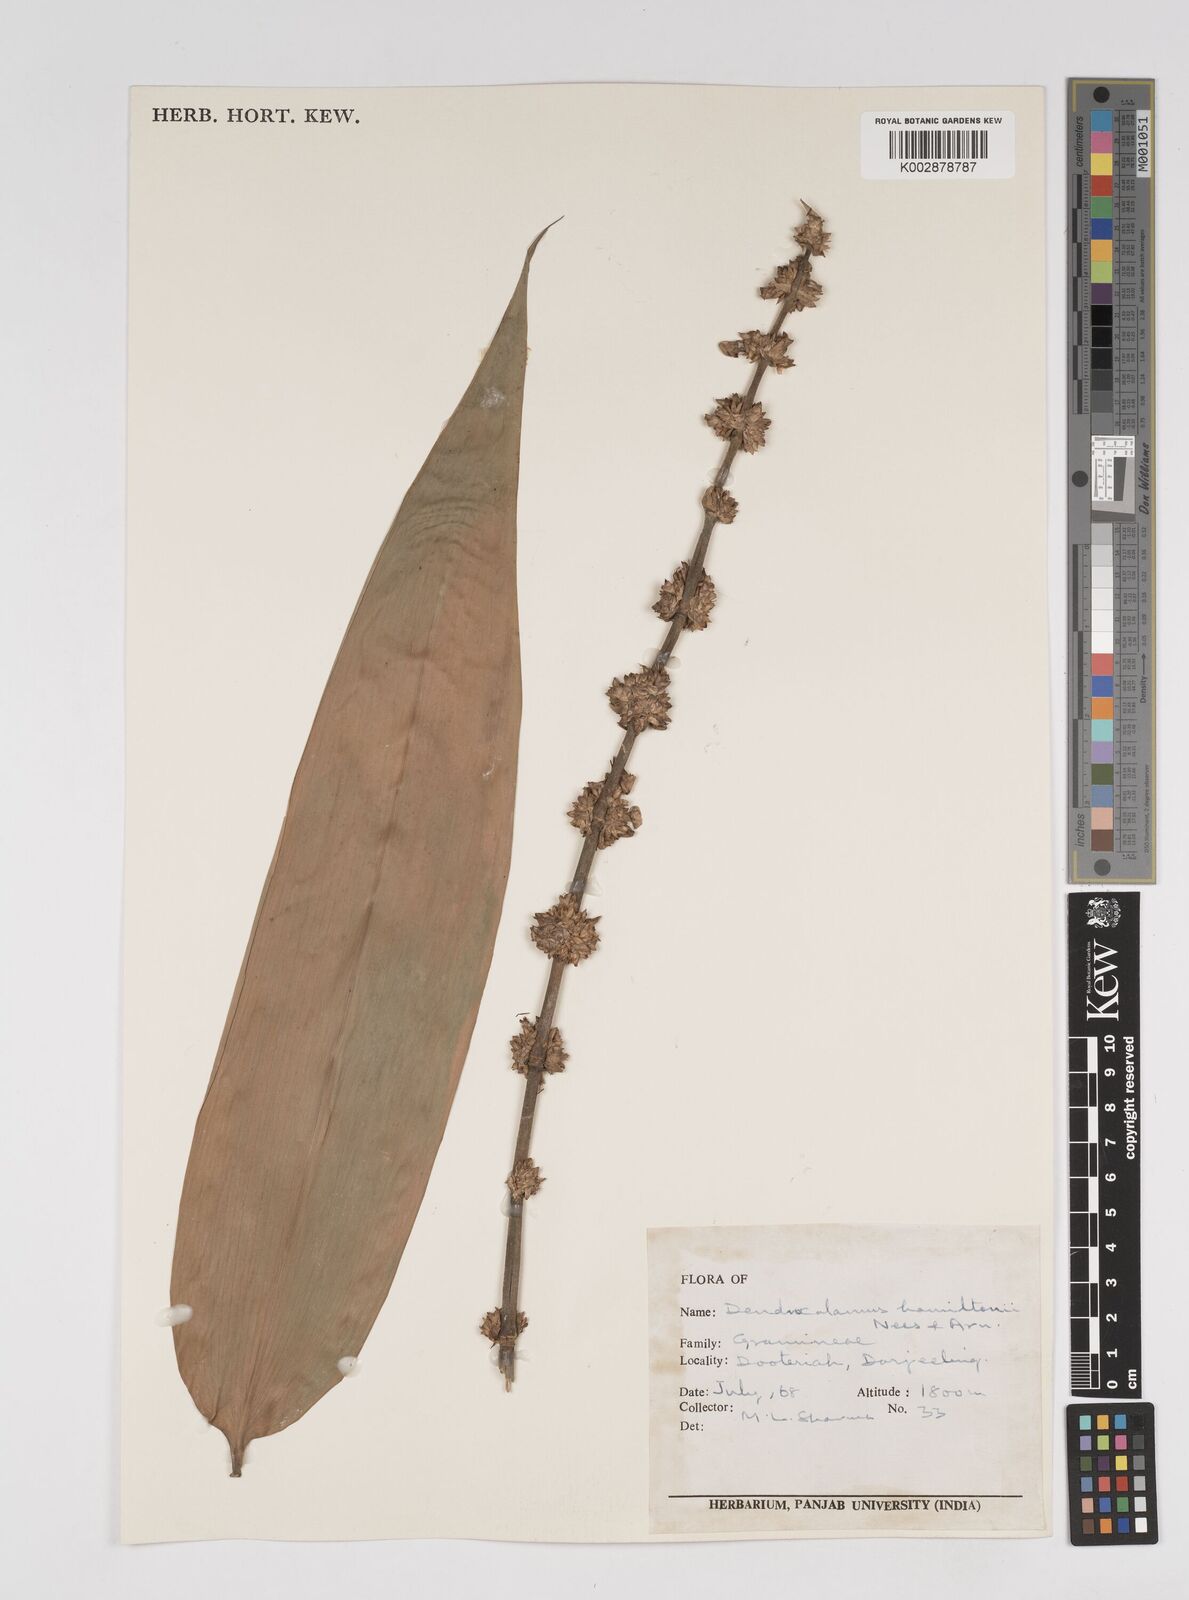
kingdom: Plantae
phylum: Tracheophyta
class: Liliopsida
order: Poales
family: Poaceae
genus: Dendrocalamus
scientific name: Dendrocalamus hamiltonii
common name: Tama bamboo
